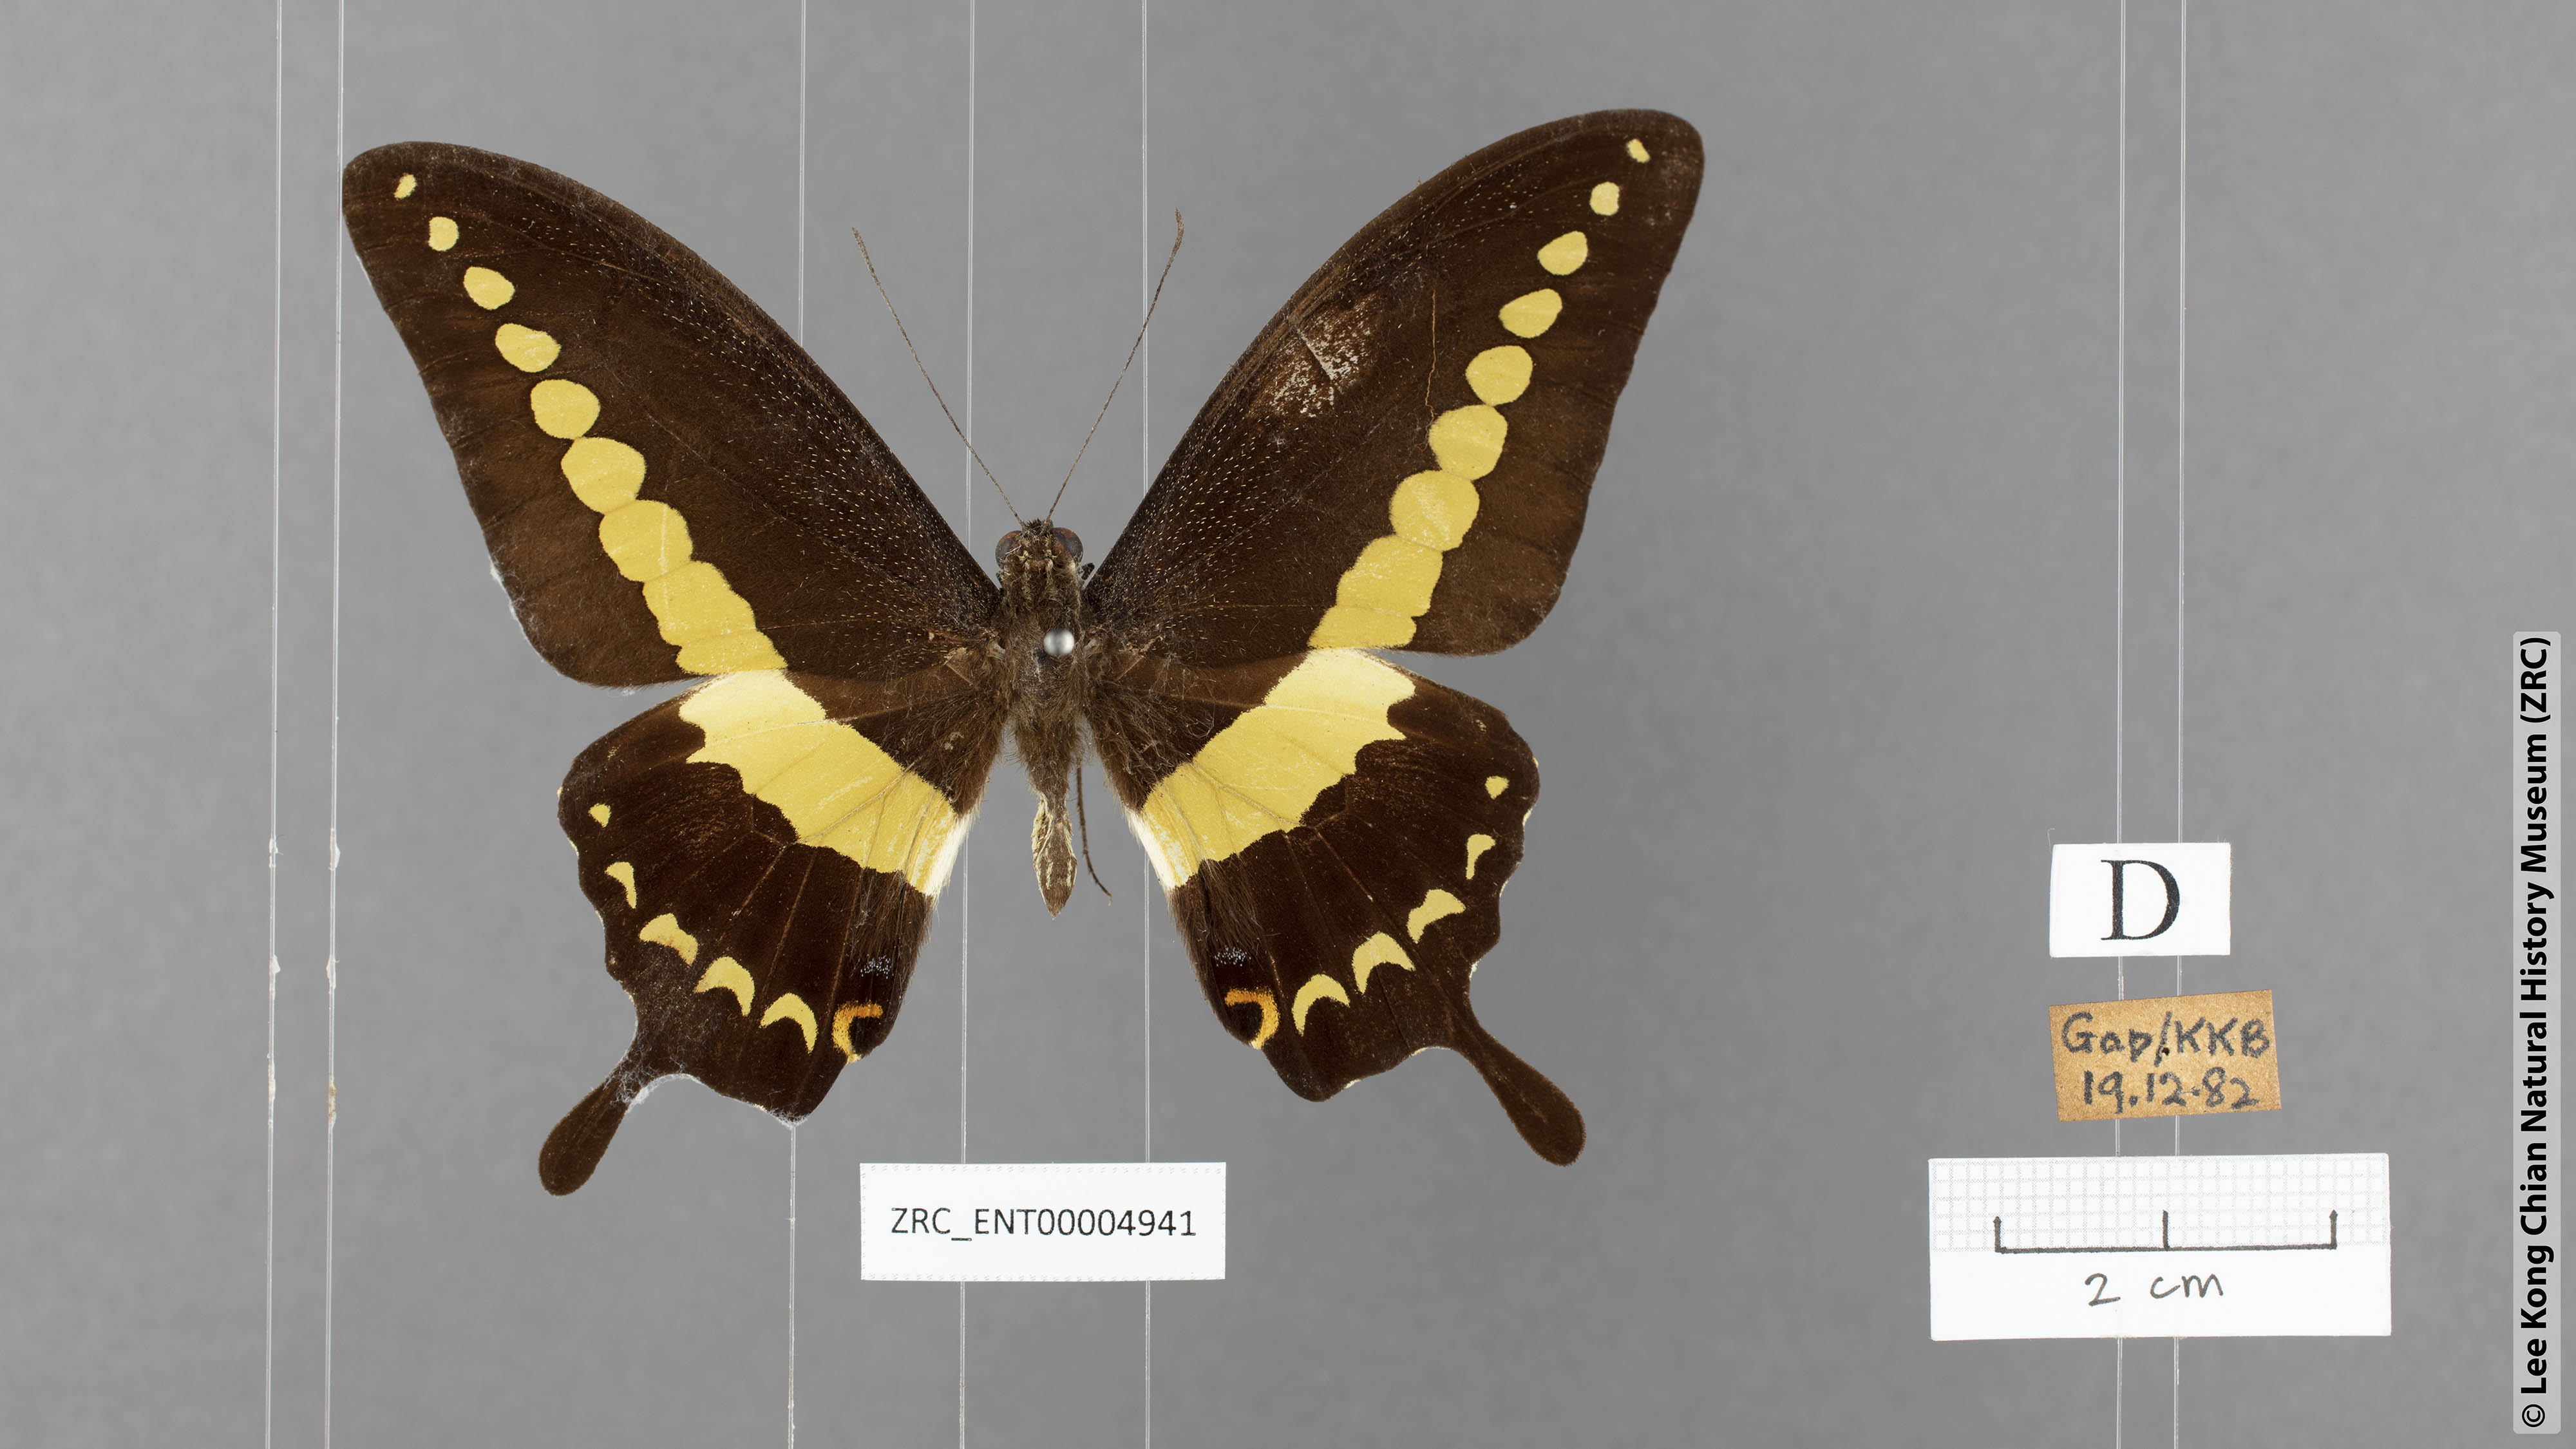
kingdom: Animalia
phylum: Arthropoda
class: Insecta
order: Lepidoptera
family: Papilionidae
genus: Papilio
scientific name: Papilio demolion
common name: Banded swallowtail
